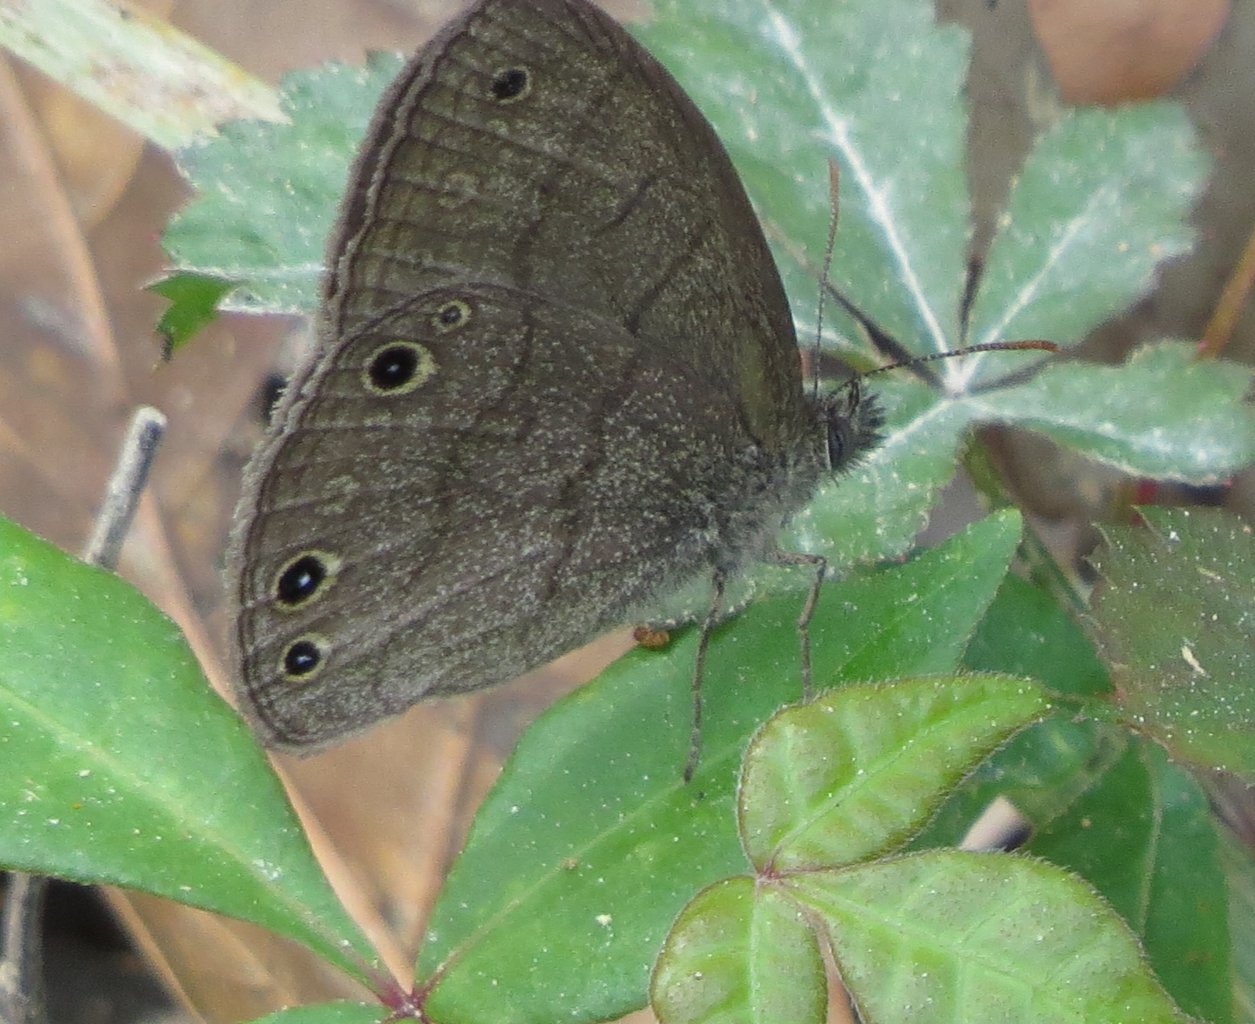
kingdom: Animalia
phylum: Arthropoda
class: Insecta
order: Lepidoptera
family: Nymphalidae
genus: Hermeuptychia
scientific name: Hermeuptychia hermes
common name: Carolina Satyr
